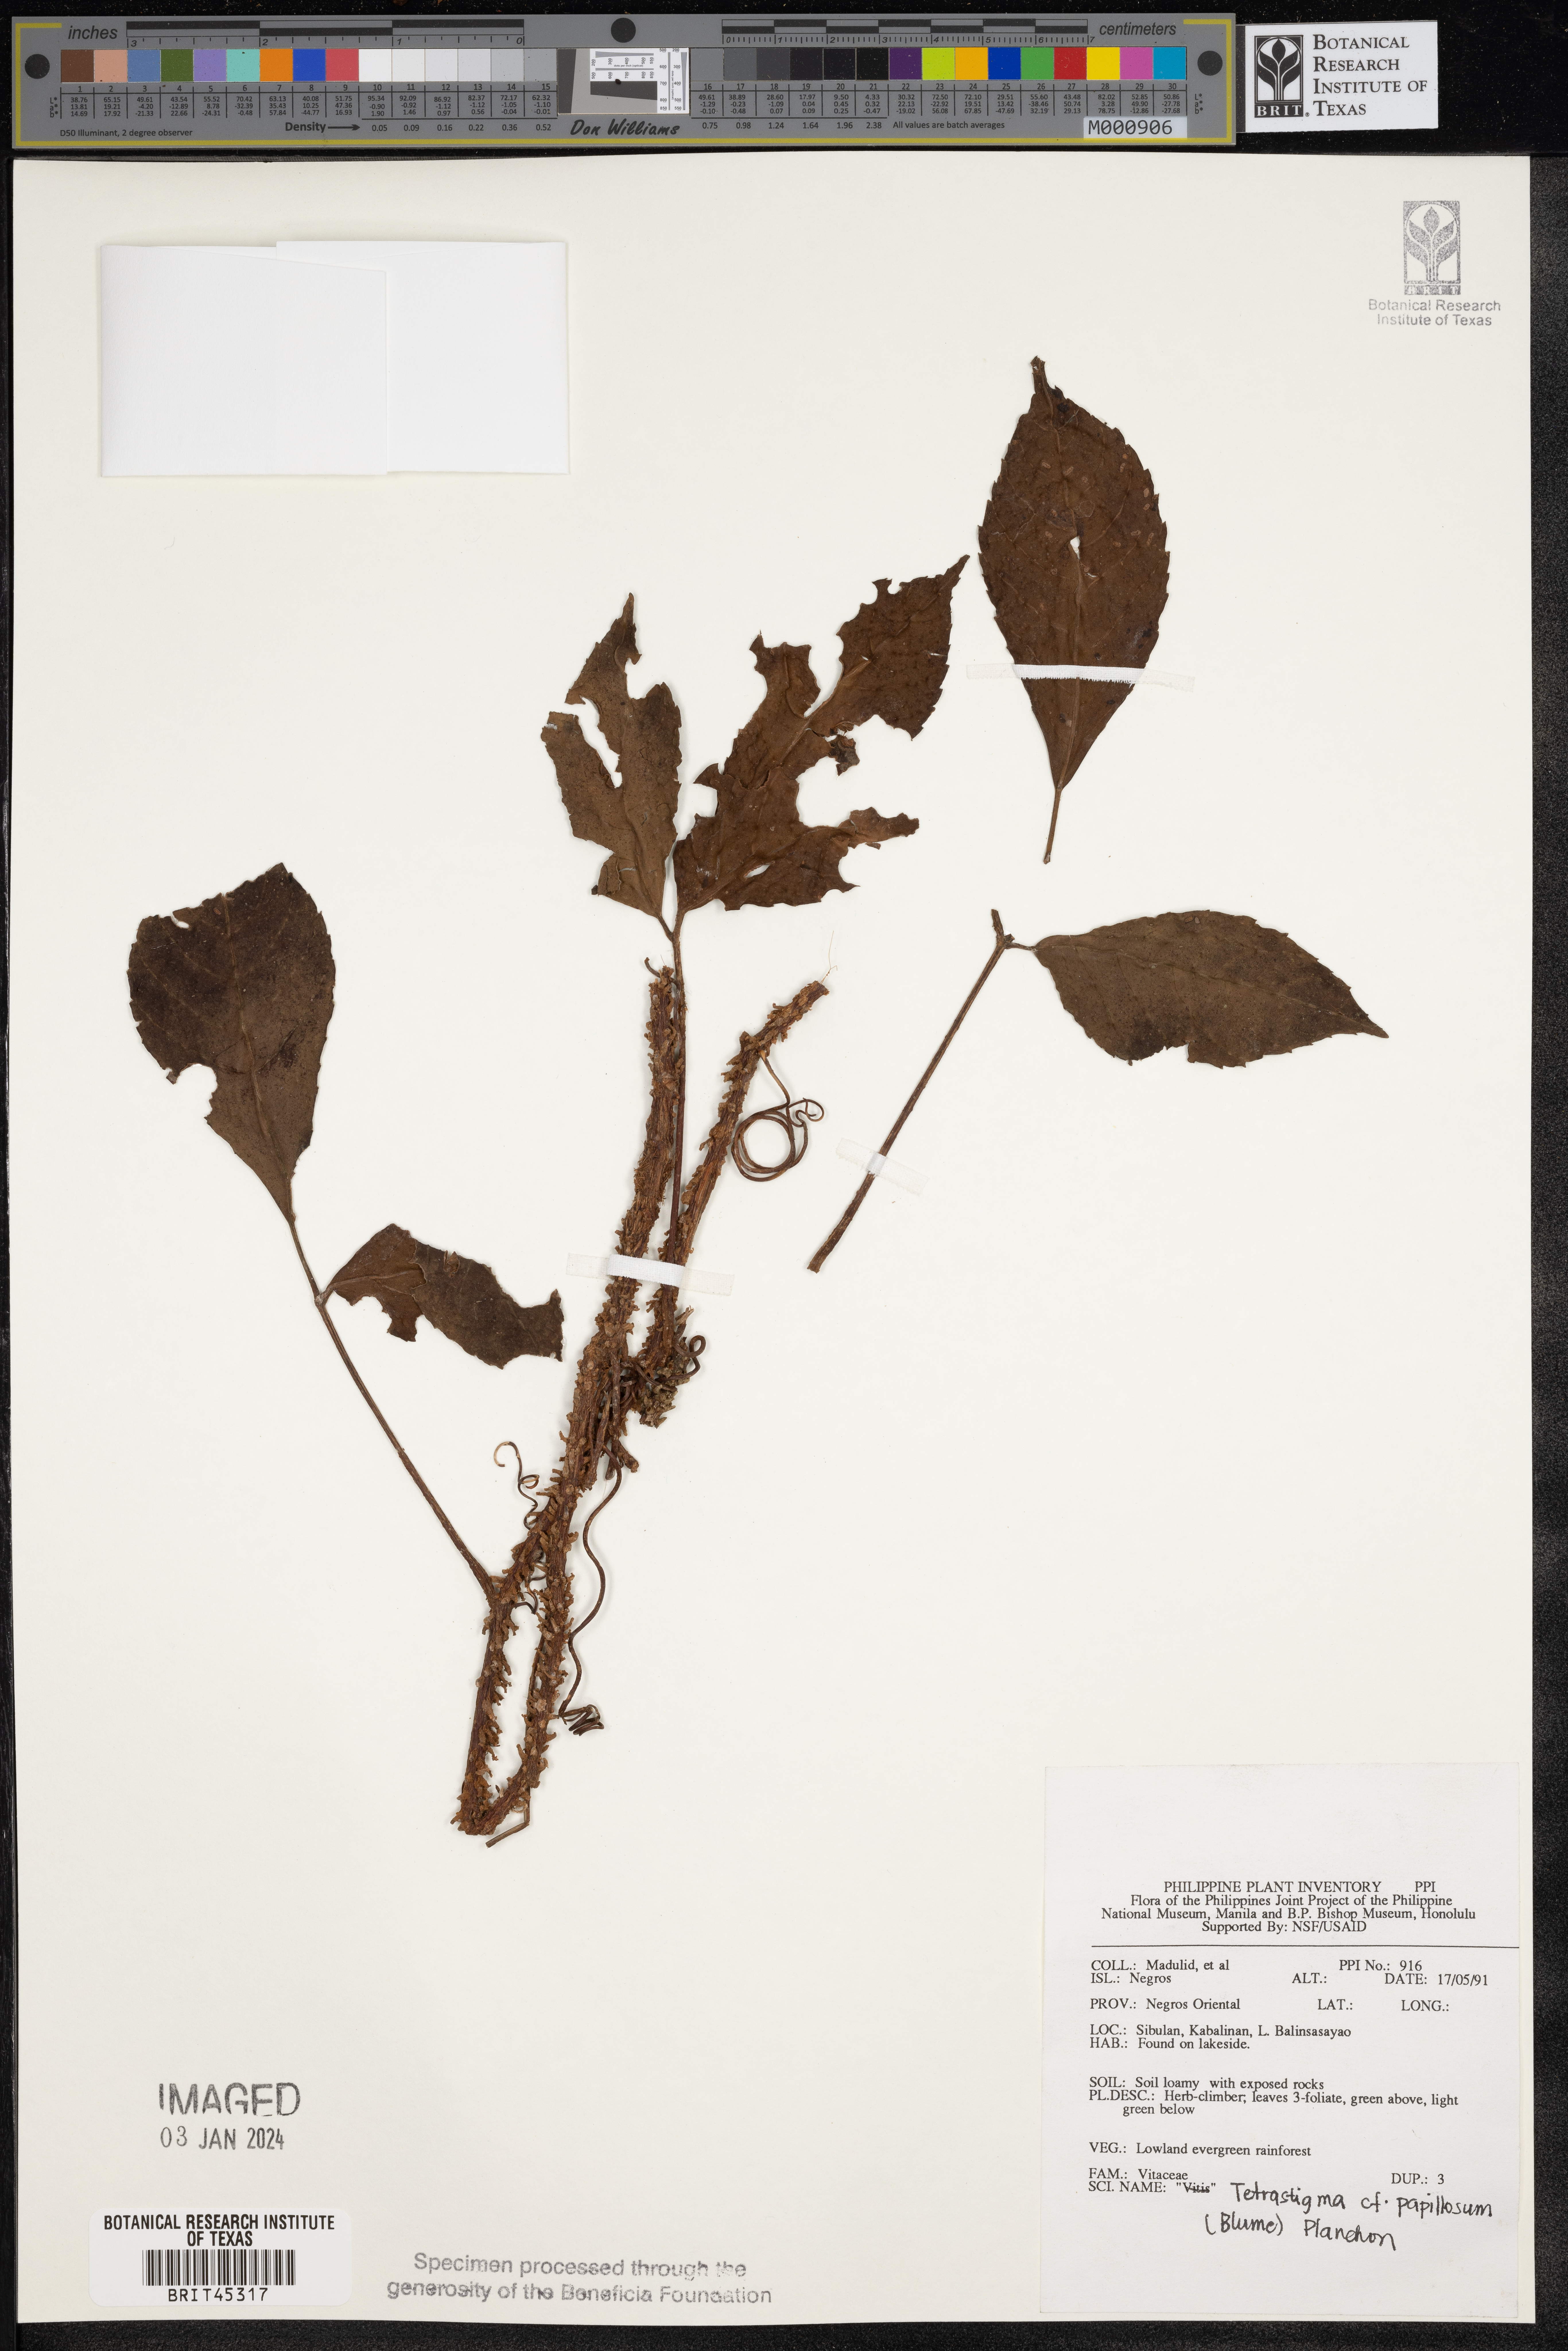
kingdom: Plantae
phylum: Tracheophyta
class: Magnoliopsida
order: Vitales
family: Vitaceae
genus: Tetrastigma
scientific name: Tetrastigma papillosum
